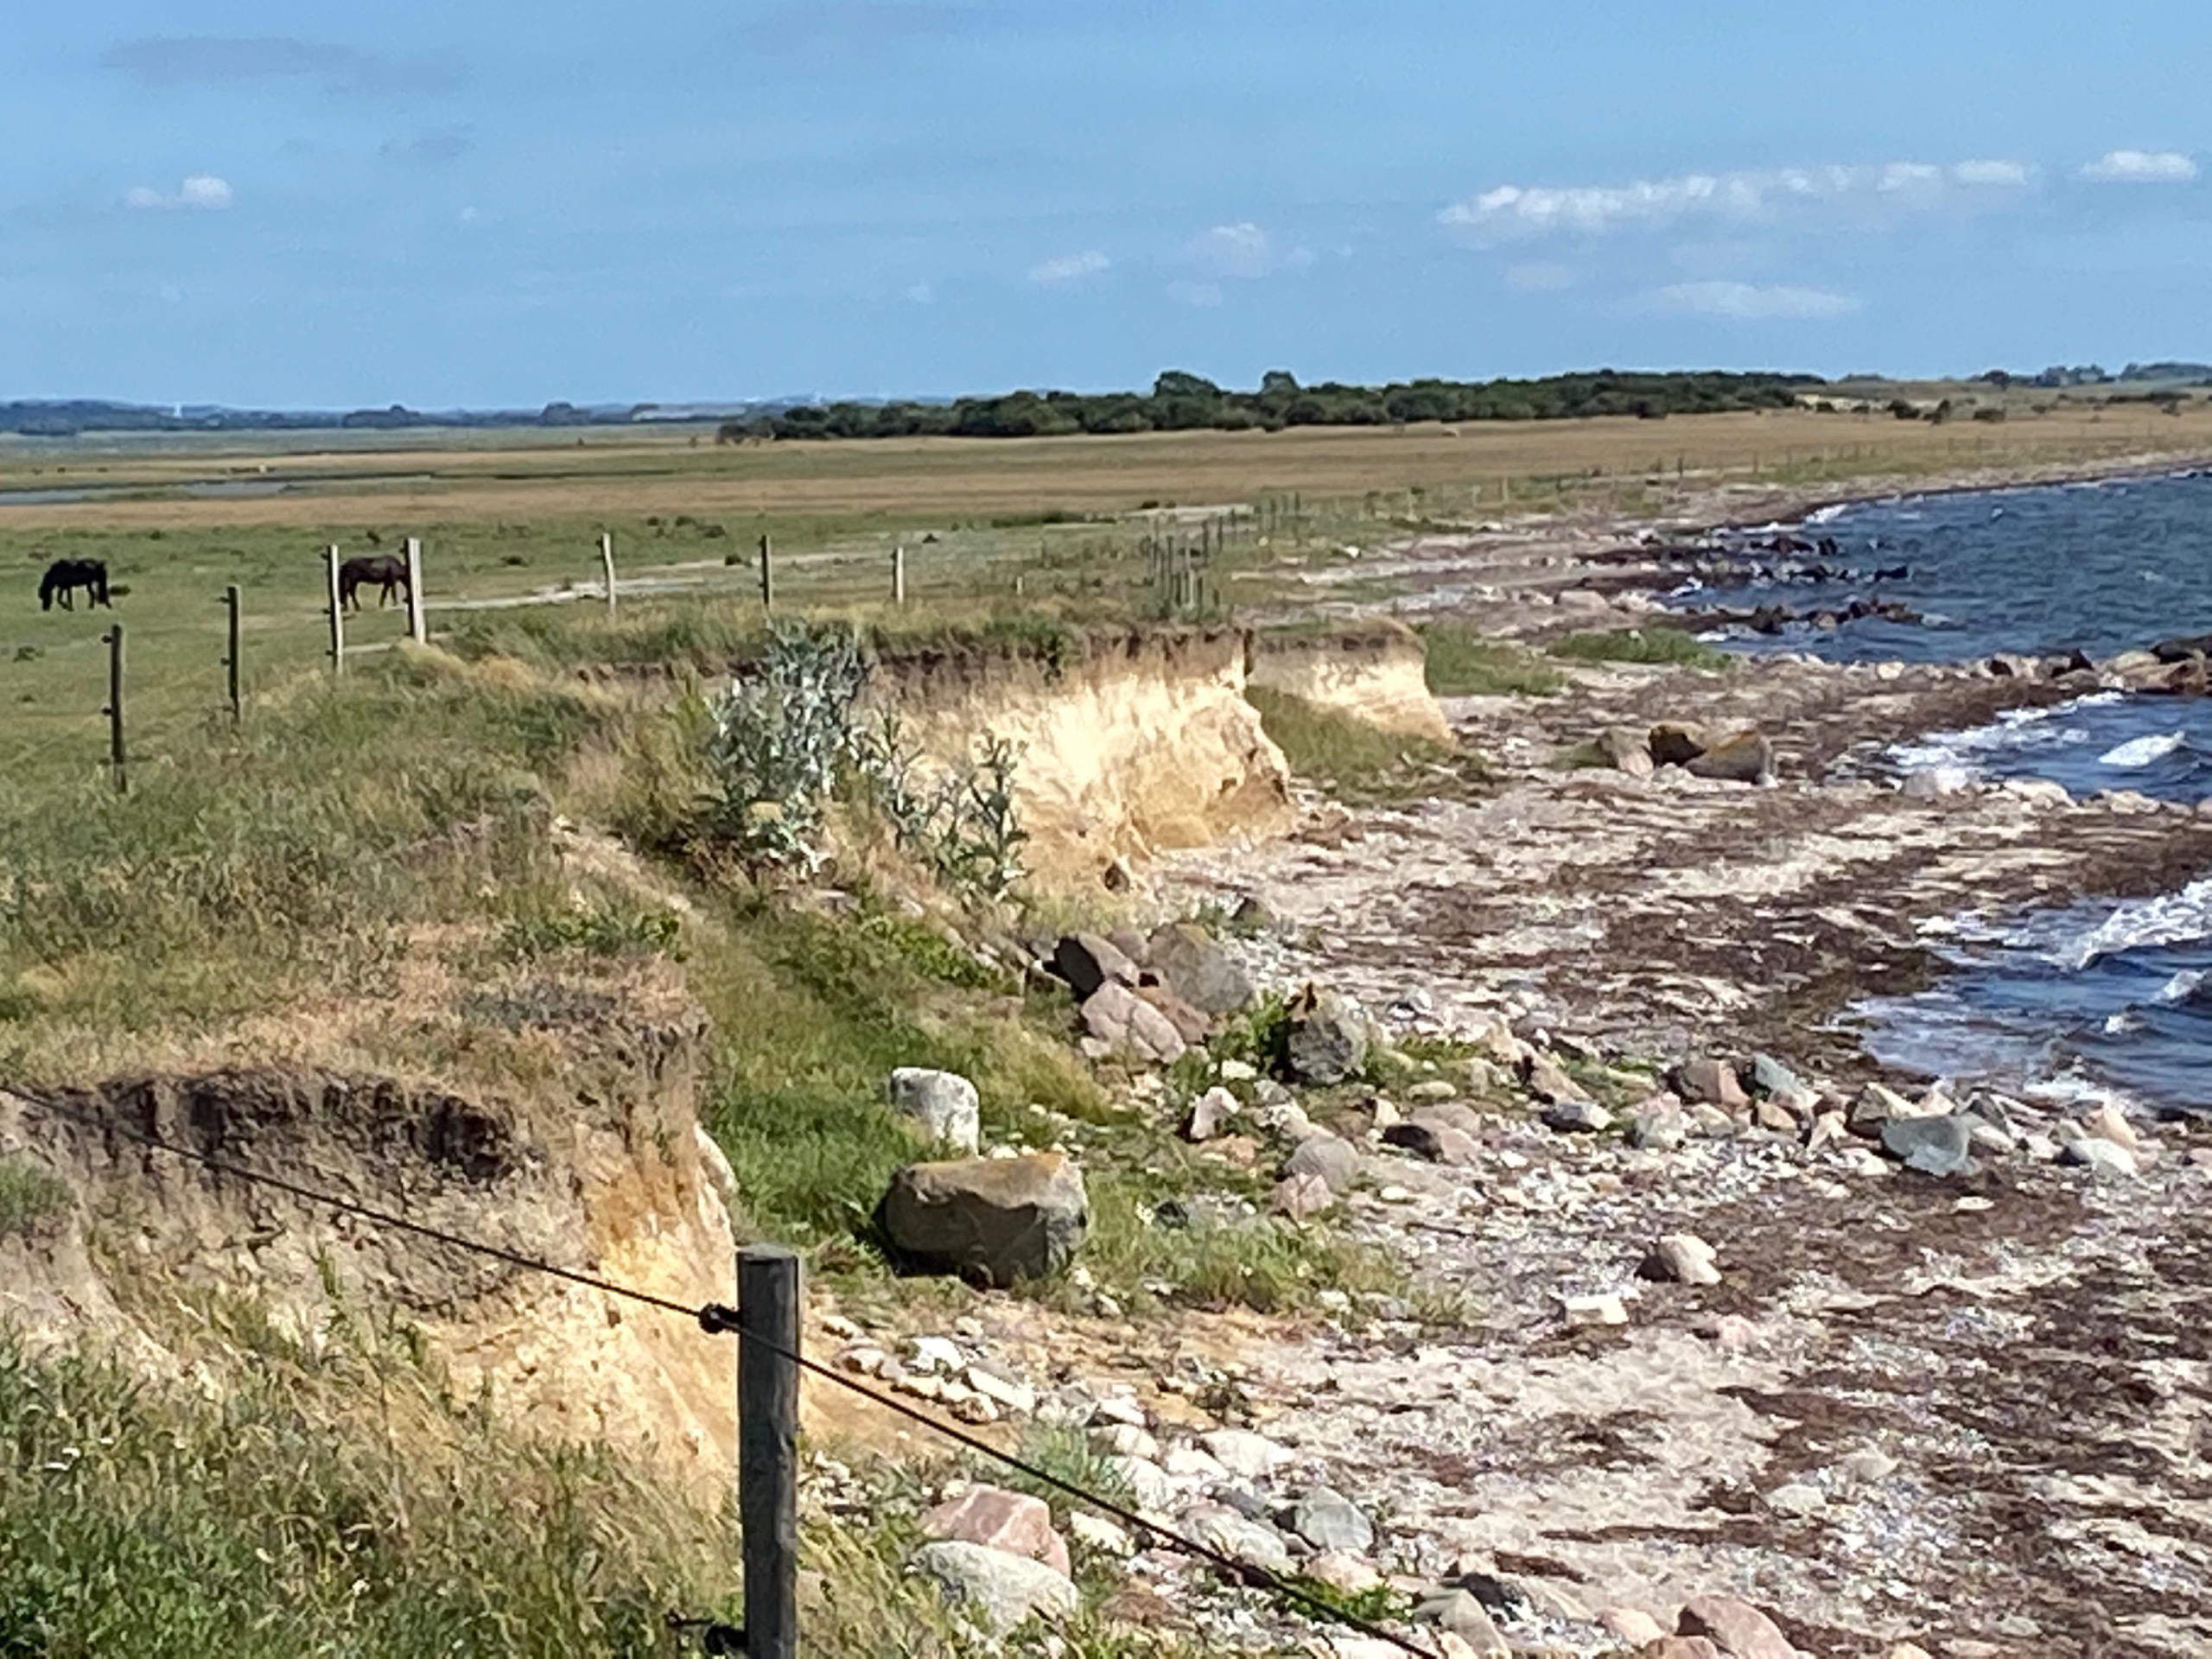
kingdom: Plantae
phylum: Tracheophyta
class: Magnoliopsida
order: Asterales
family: Asteraceae
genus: Onopordum
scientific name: Onopordum acanthium
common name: Æselfoder
